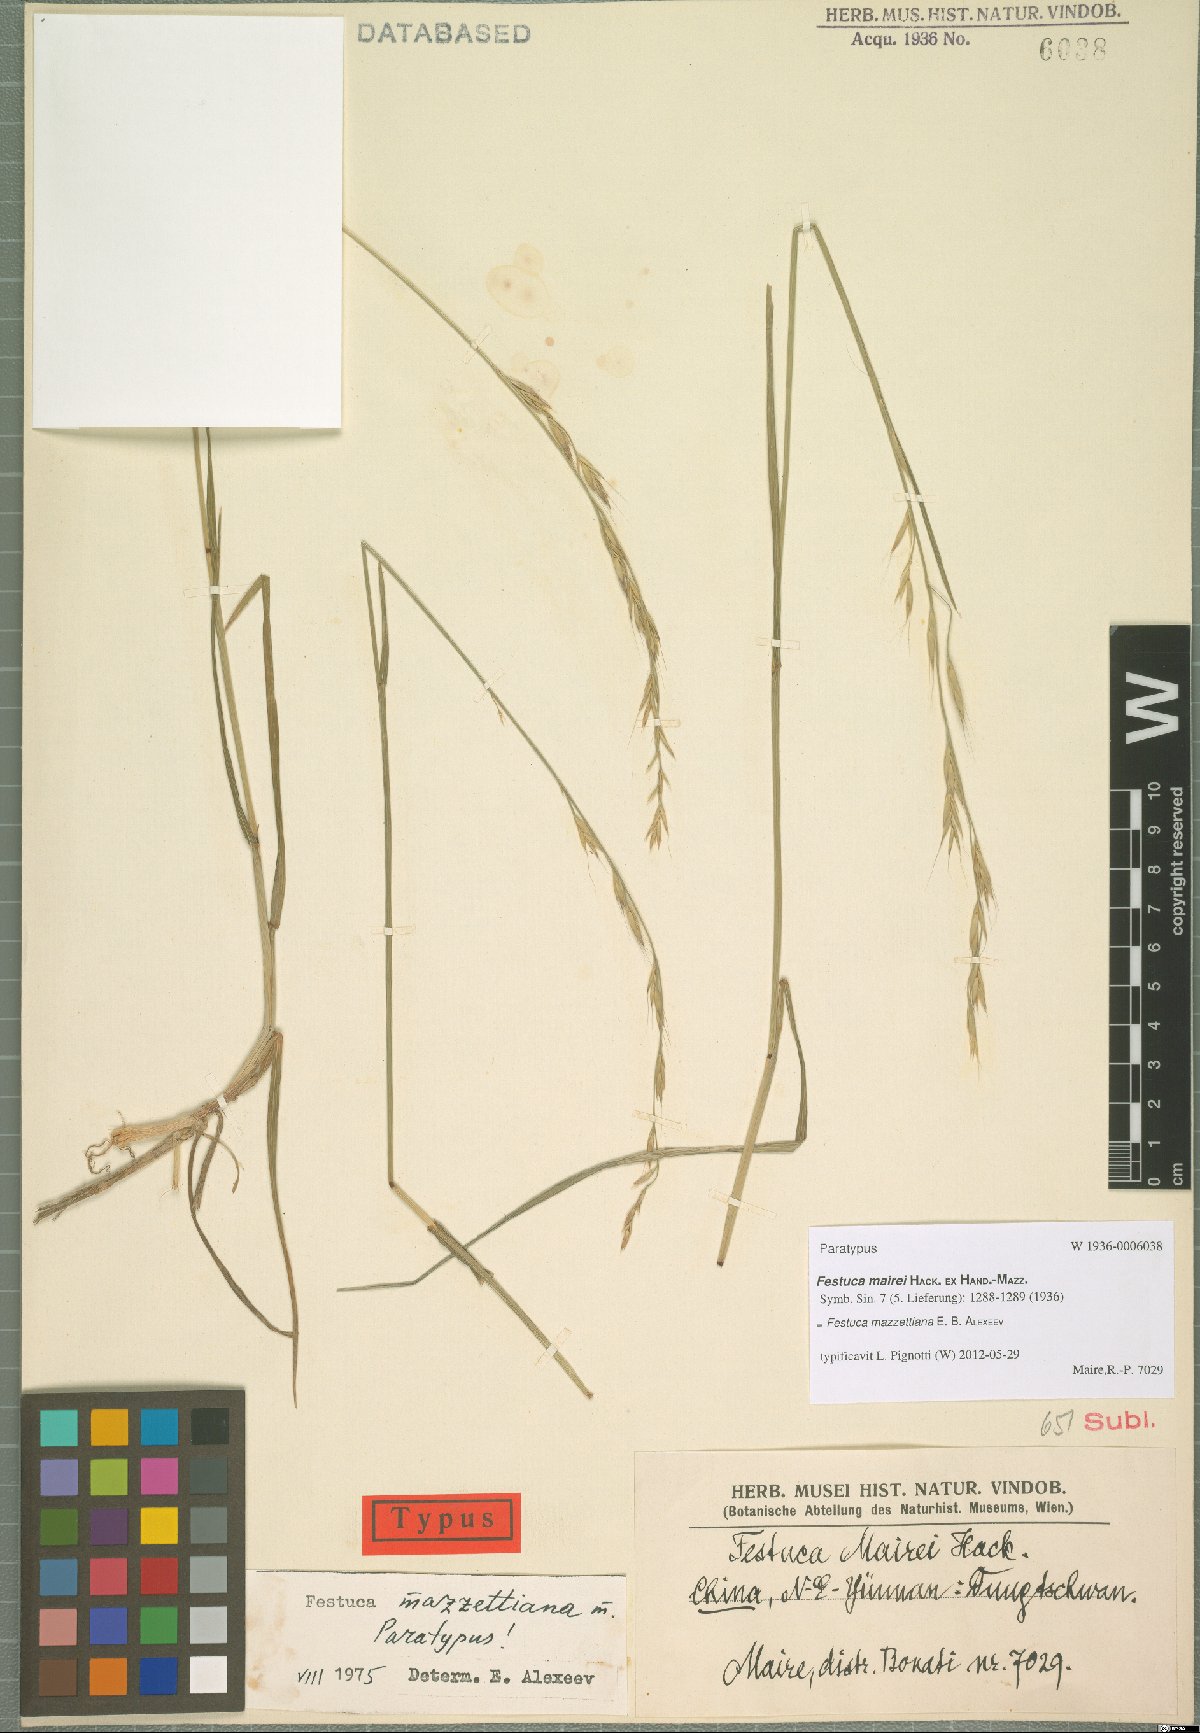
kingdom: Plantae
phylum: Tracheophyta
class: Liliopsida
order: Poales
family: Poaceae
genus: Lolium
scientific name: Lolium mazzettianum
